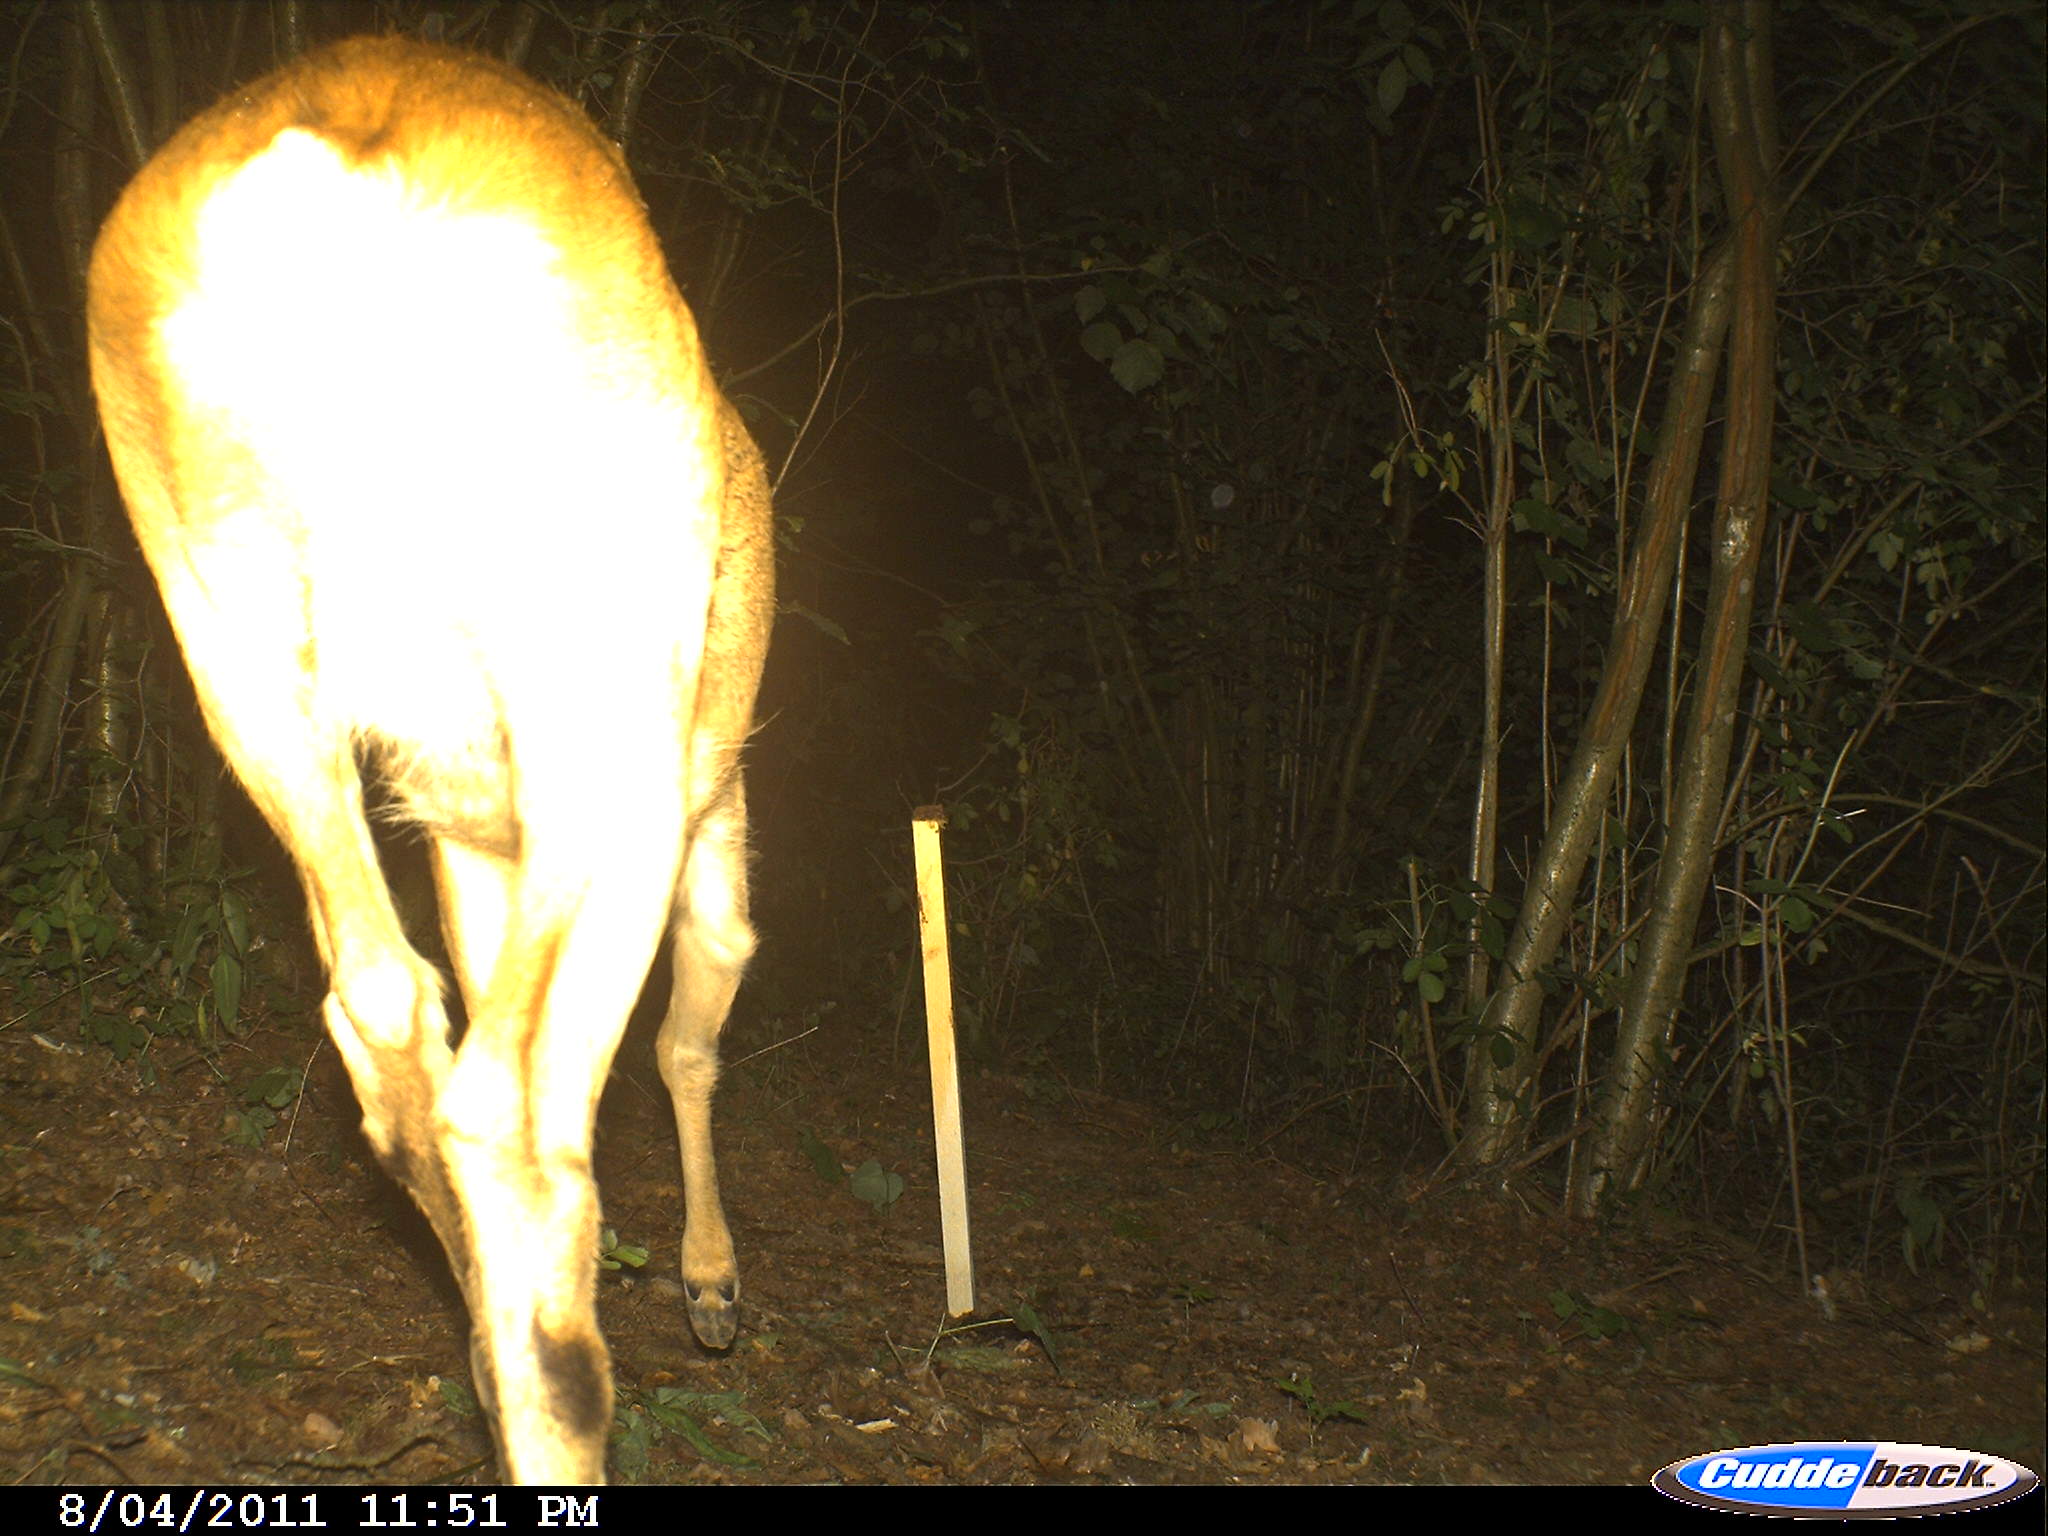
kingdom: Animalia
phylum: Chordata
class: Mammalia
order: Artiodactyla
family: Cervidae
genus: Capreolus
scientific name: Capreolus capreolus
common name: Western roe deer
